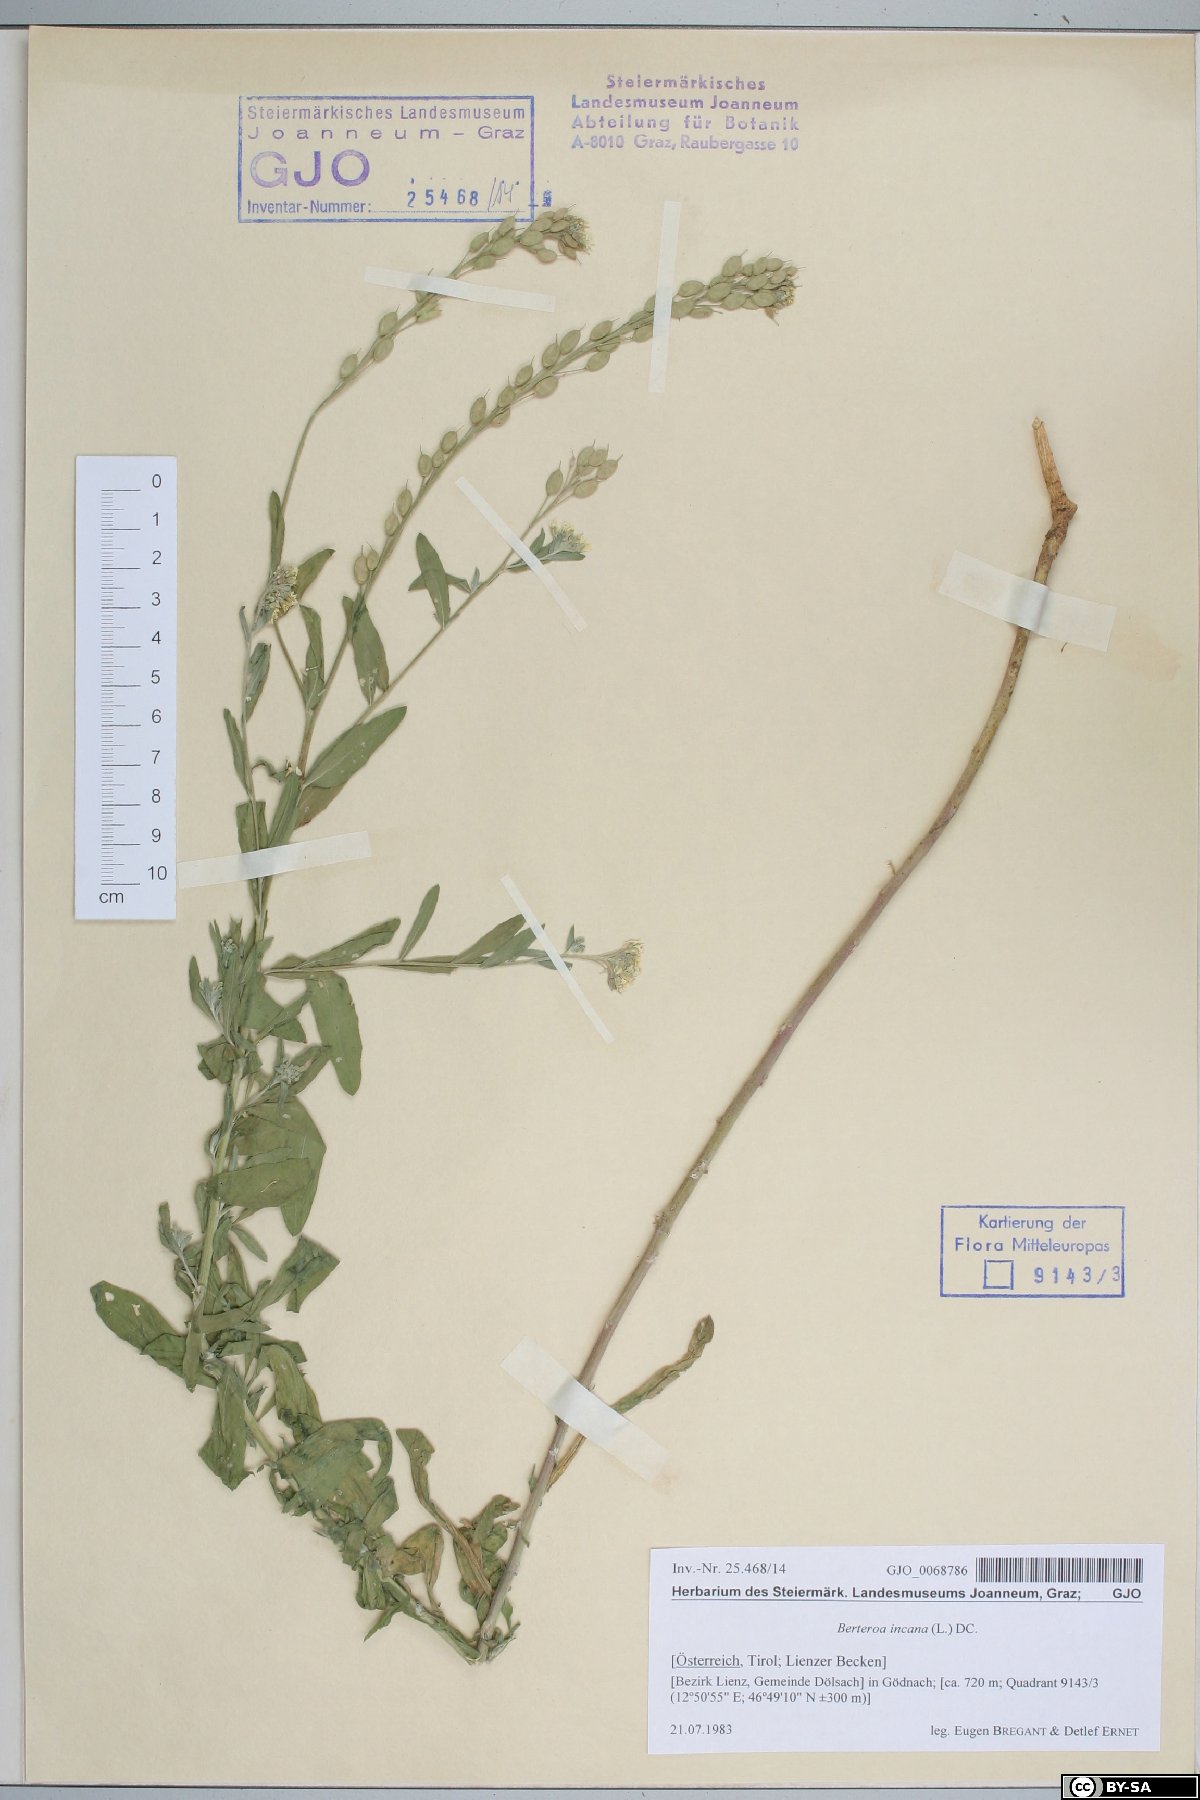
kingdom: Plantae
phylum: Tracheophyta
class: Magnoliopsida
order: Brassicales
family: Brassicaceae
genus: Berteroa
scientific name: Berteroa incana
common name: Hoary alison
